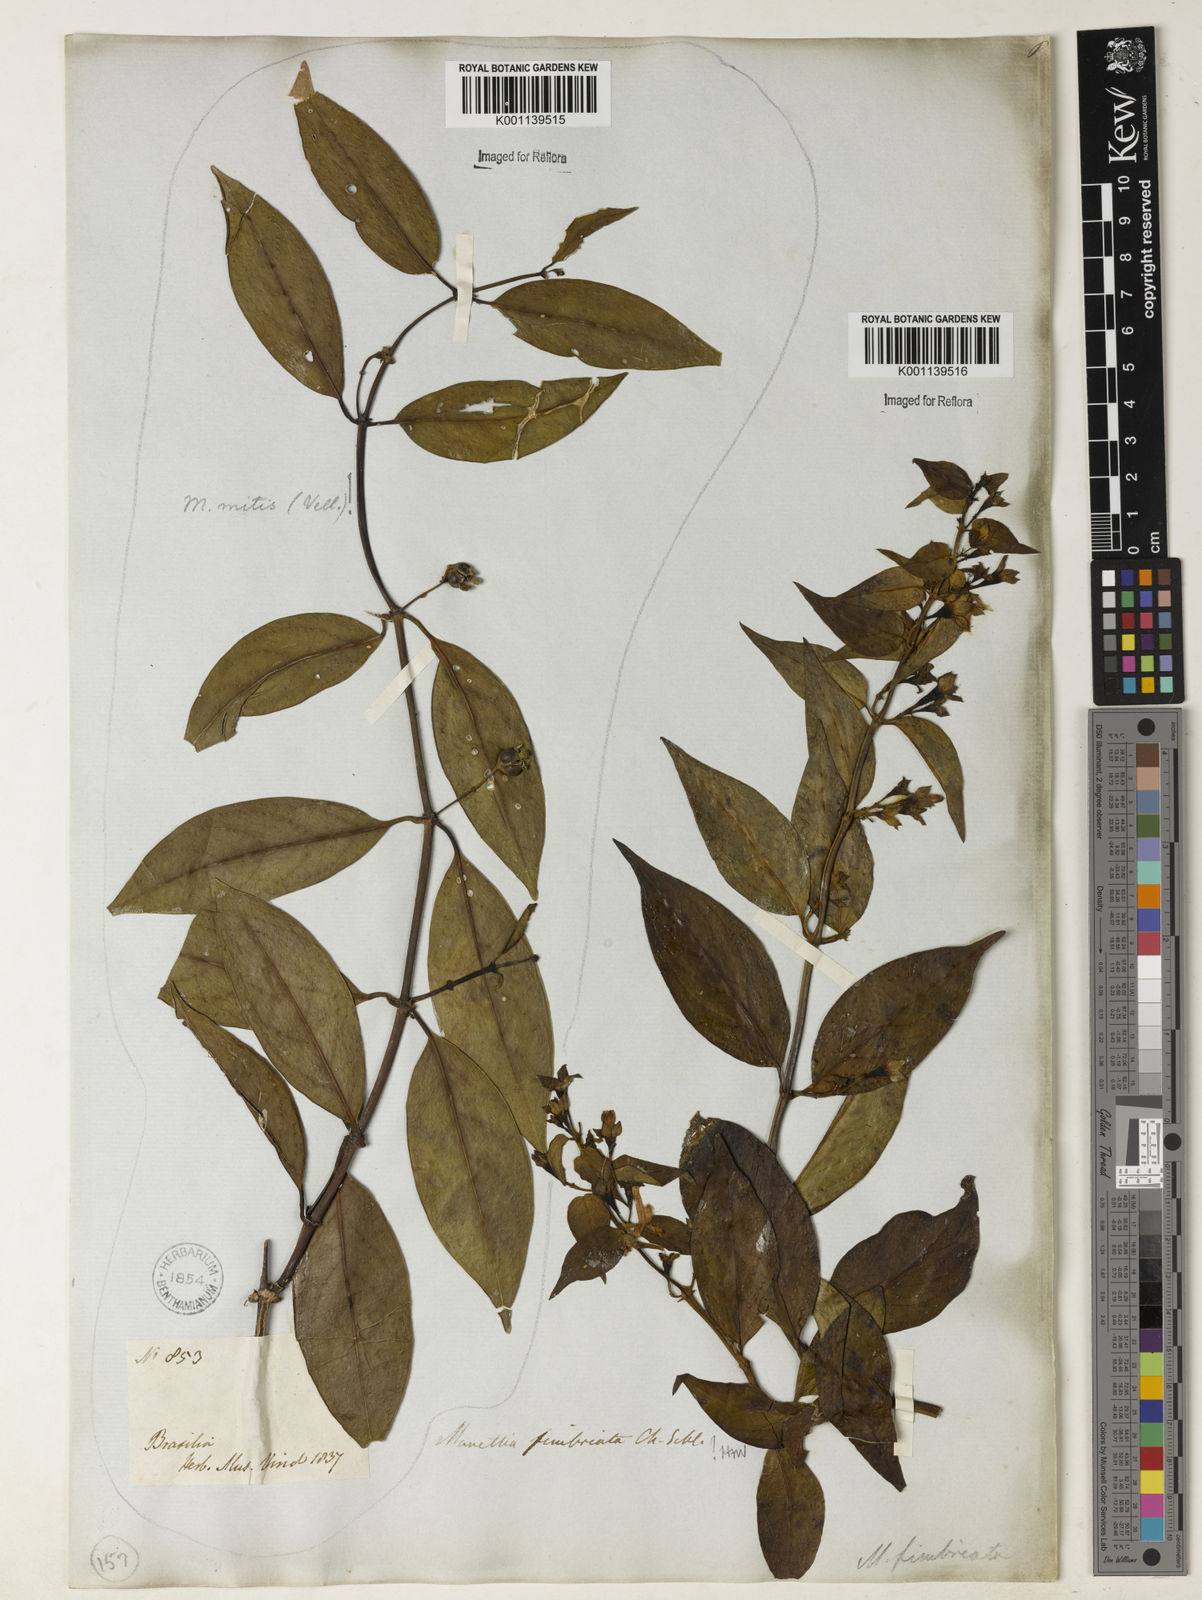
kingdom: Plantae
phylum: Tracheophyta
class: Magnoliopsida
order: Gentianales
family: Rubiaceae
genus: Manettia
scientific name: Manettia fimbriata
